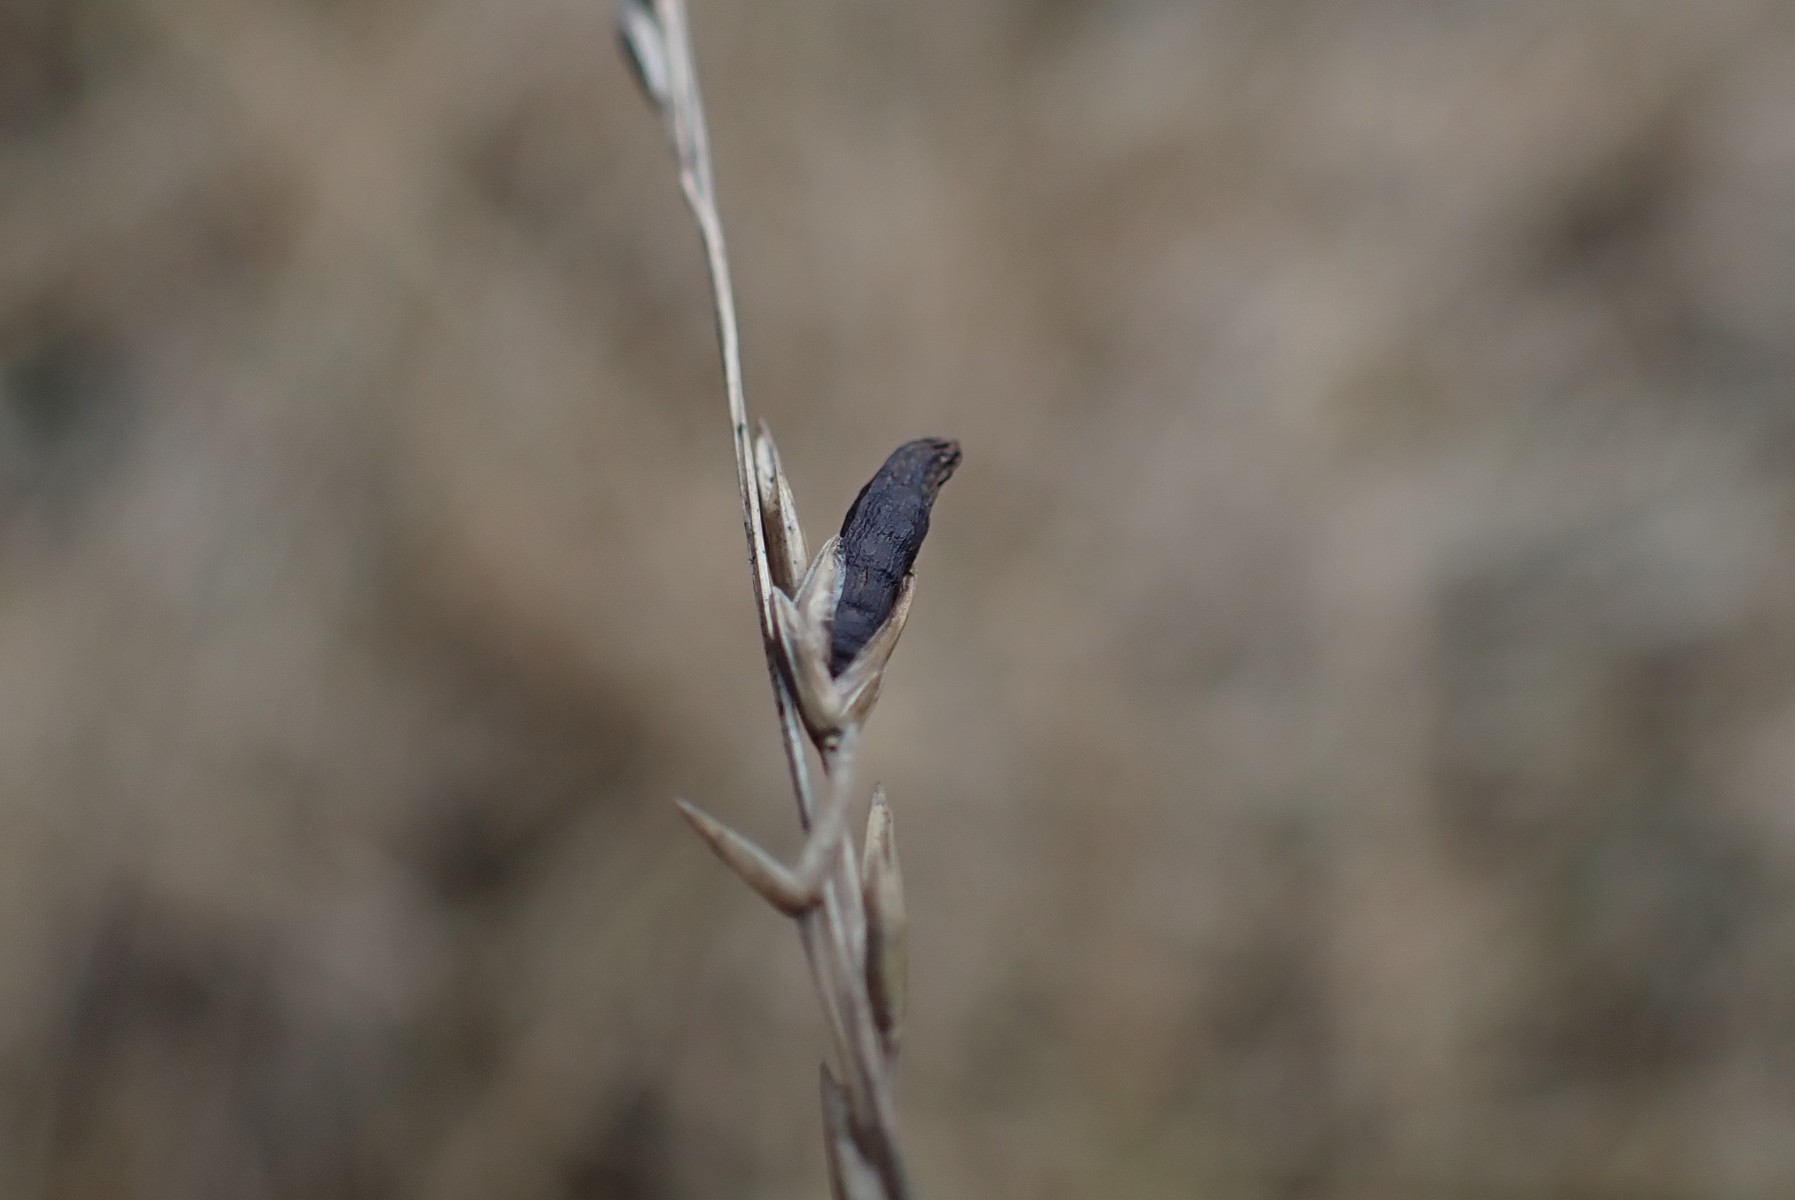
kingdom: Fungi
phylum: Ascomycota
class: Sordariomycetes
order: Hypocreales
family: Clavicipitaceae
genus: Claviceps
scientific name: Claviceps purpurea
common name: almindelig meldrøjer
